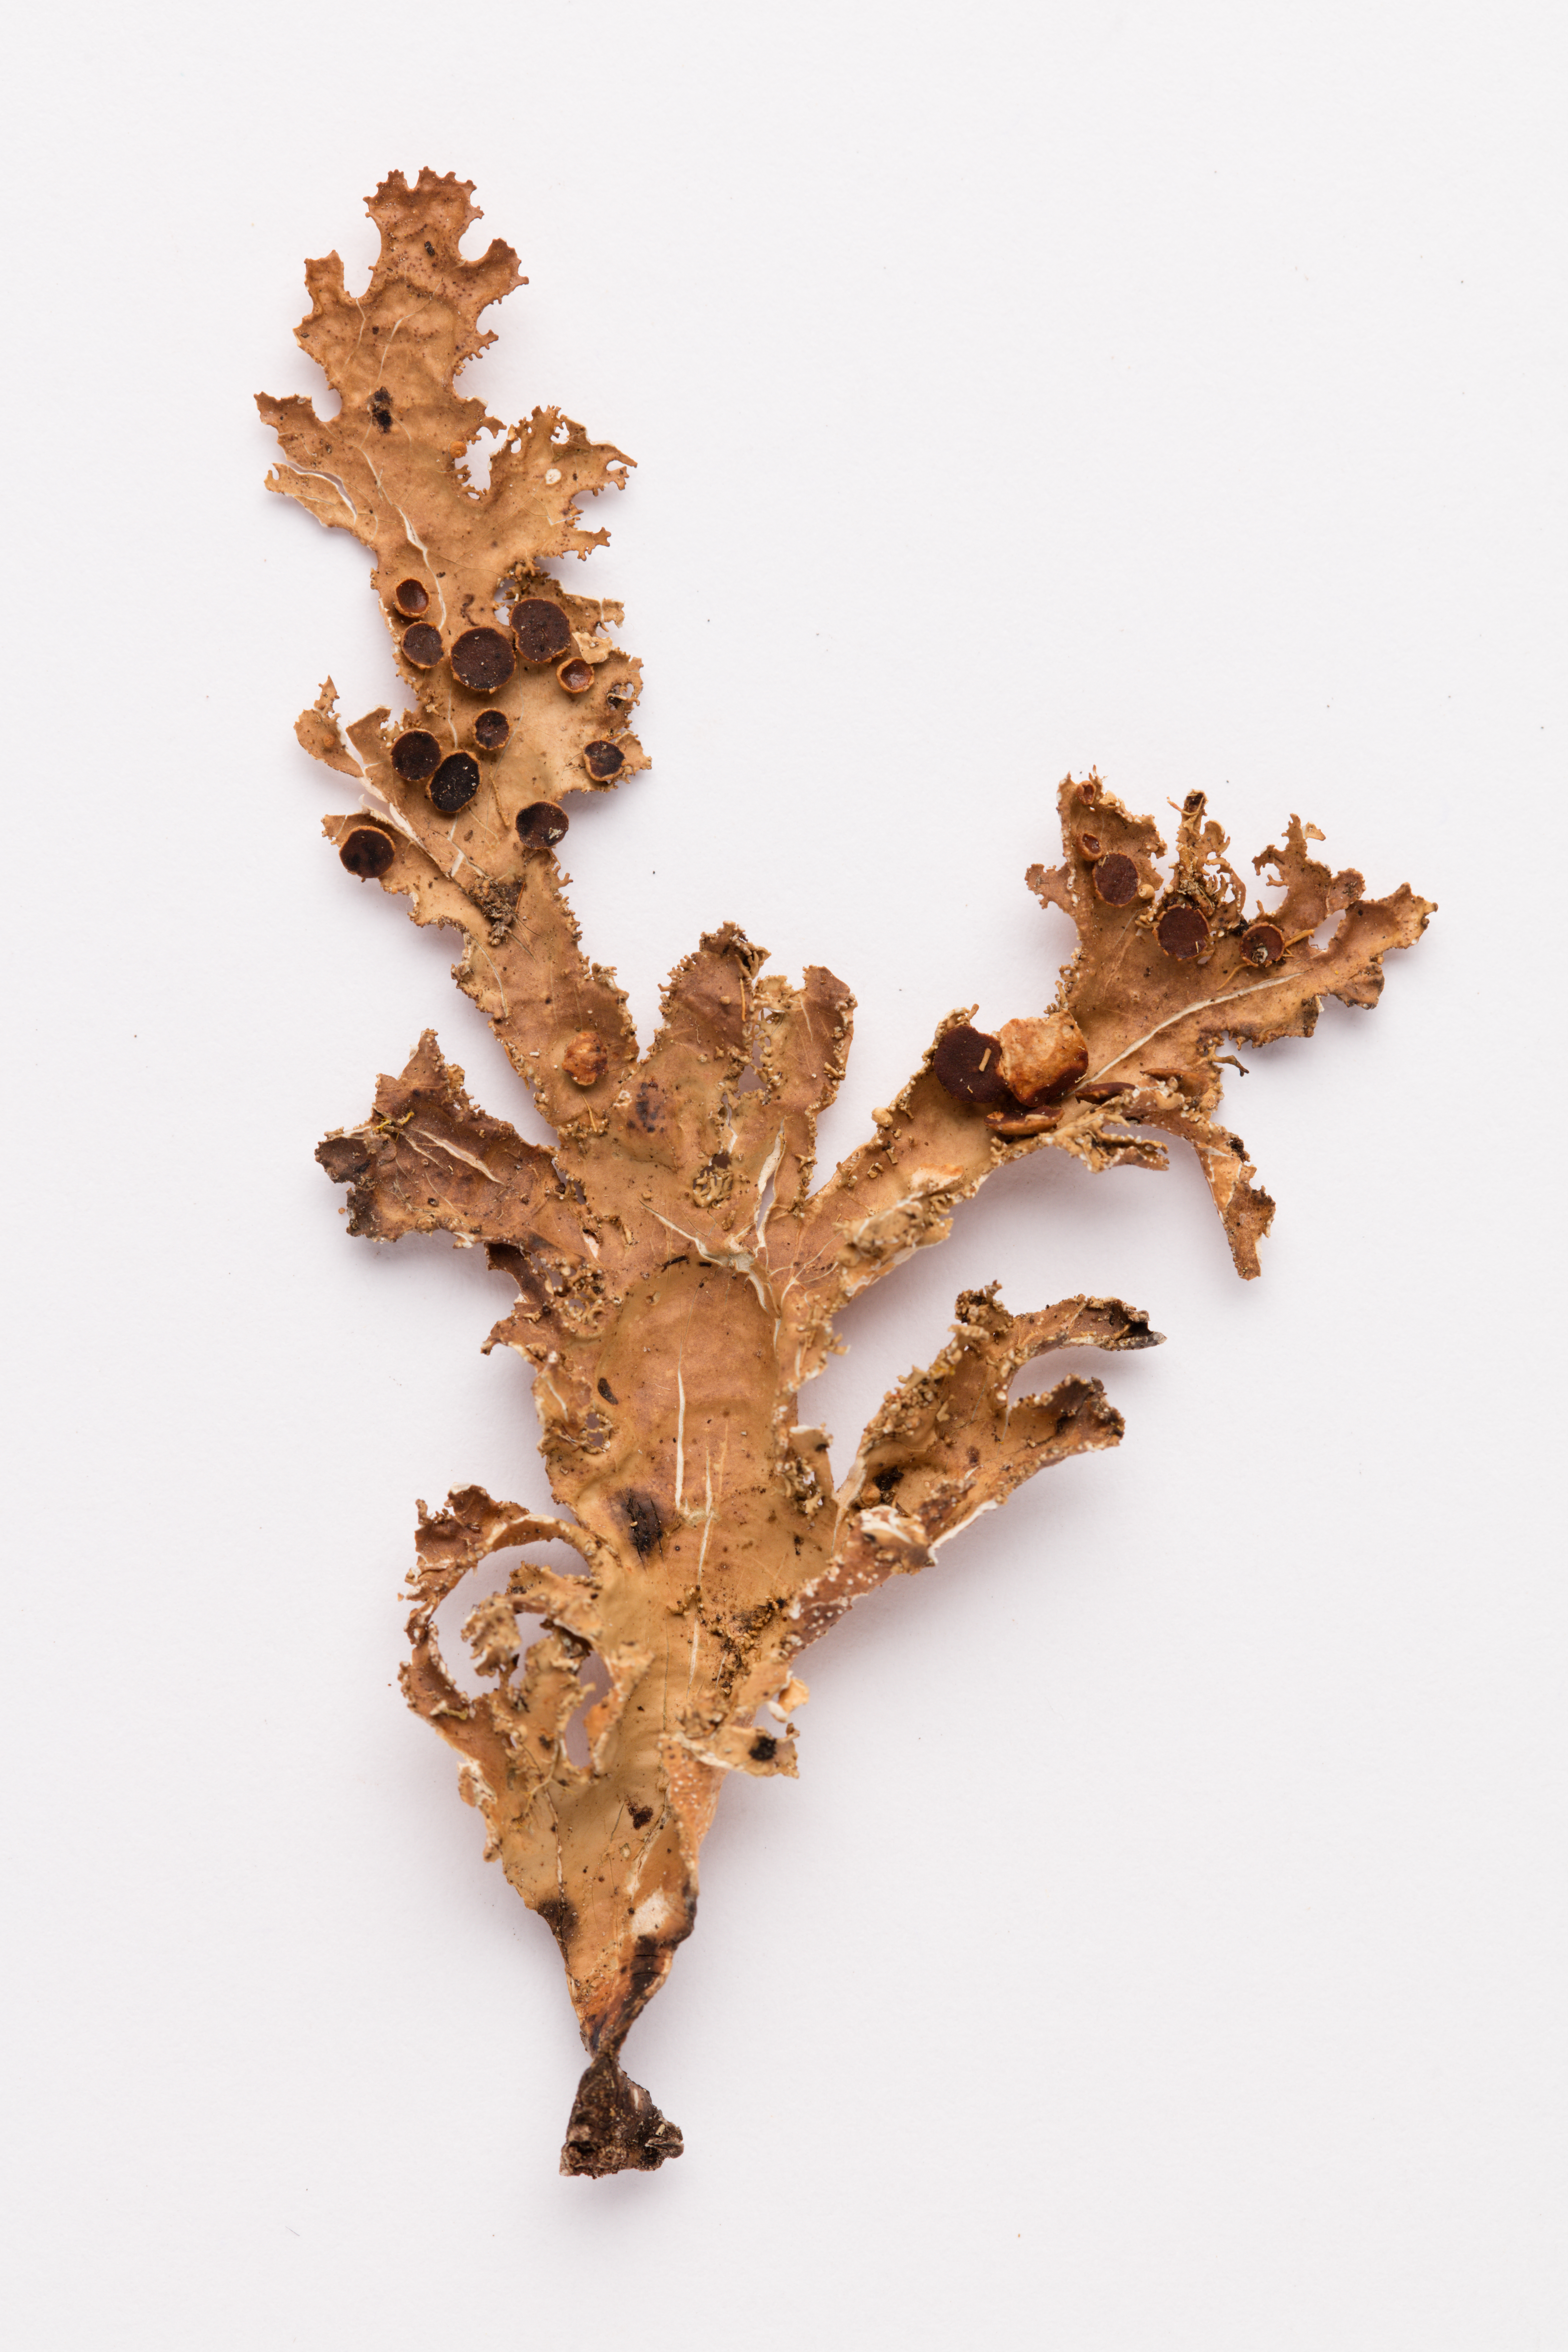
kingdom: Fungi
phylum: Ascomycota
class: Lecanoromycetes
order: Peltigerales
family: Lobariaceae
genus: Pseudocyphellaria
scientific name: Pseudocyphellaria chloroleuca
